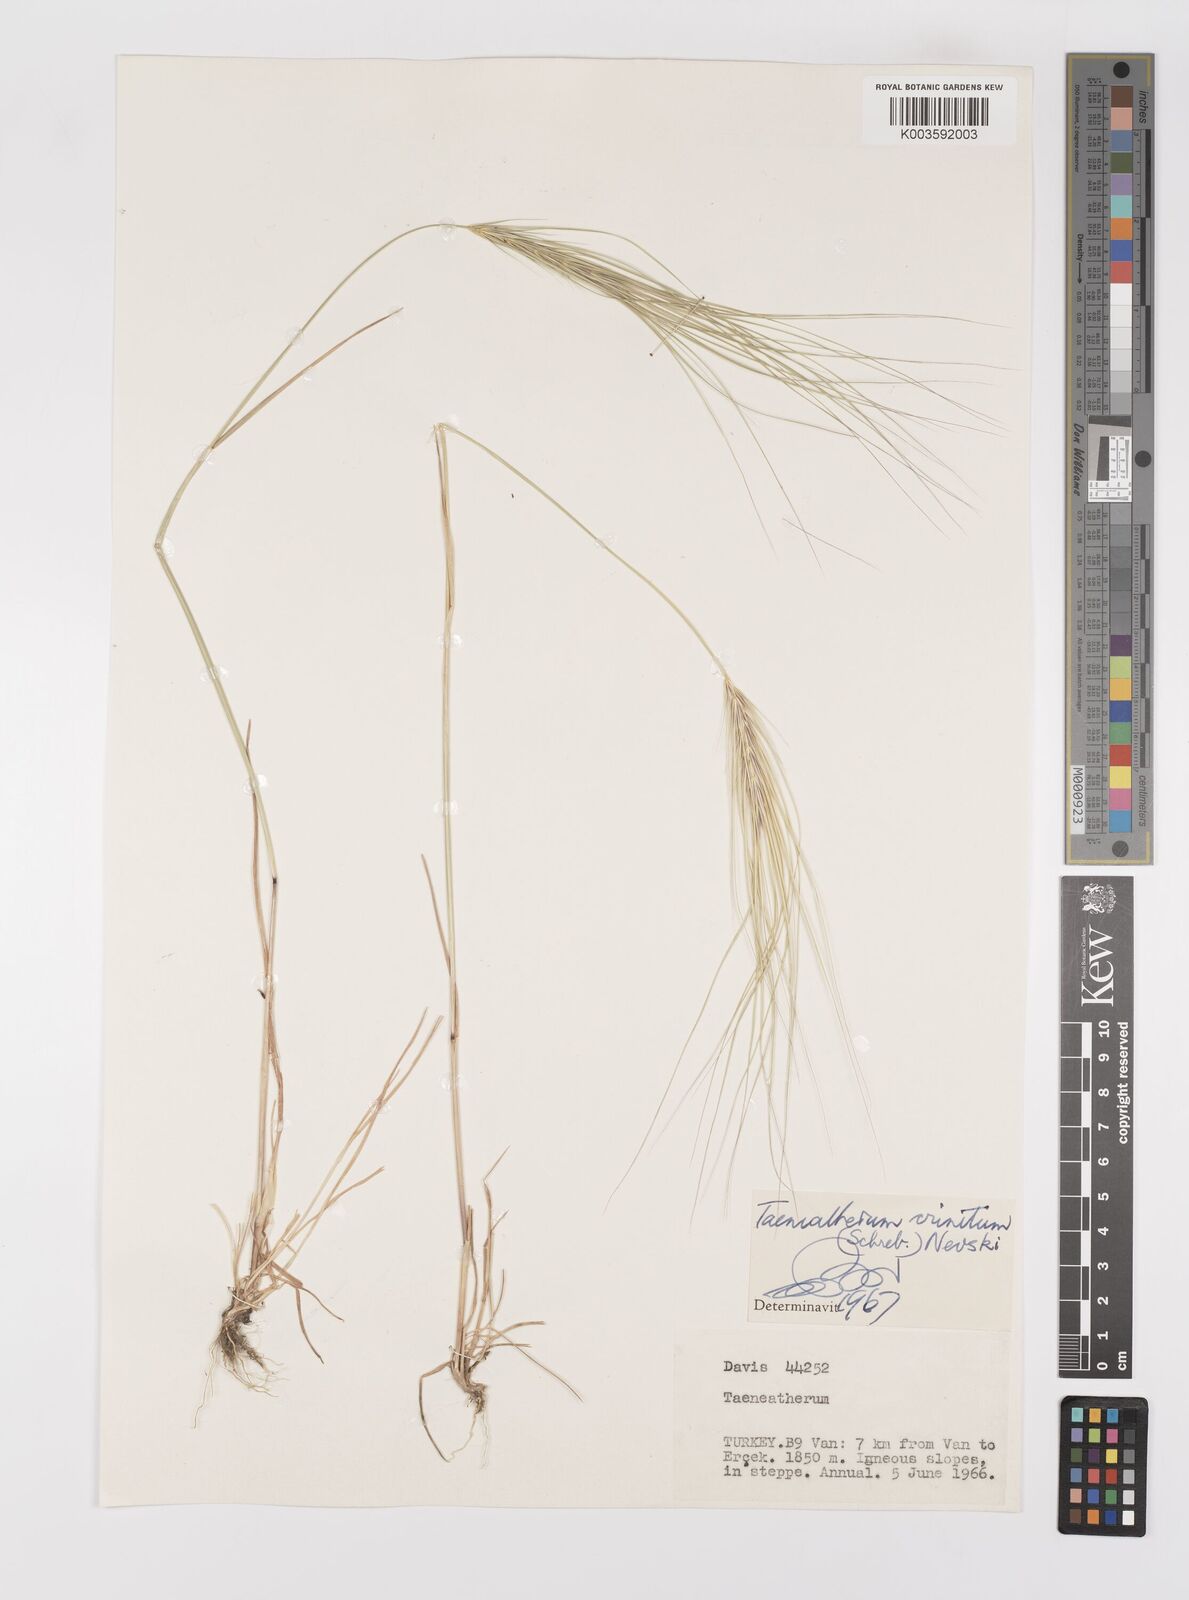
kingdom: Plantae
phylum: Tracheophyta
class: Liliopsida
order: Poales
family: Poaceae
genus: Taeniatherum
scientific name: Taeniatherum caput-medusae
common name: Medusahead
